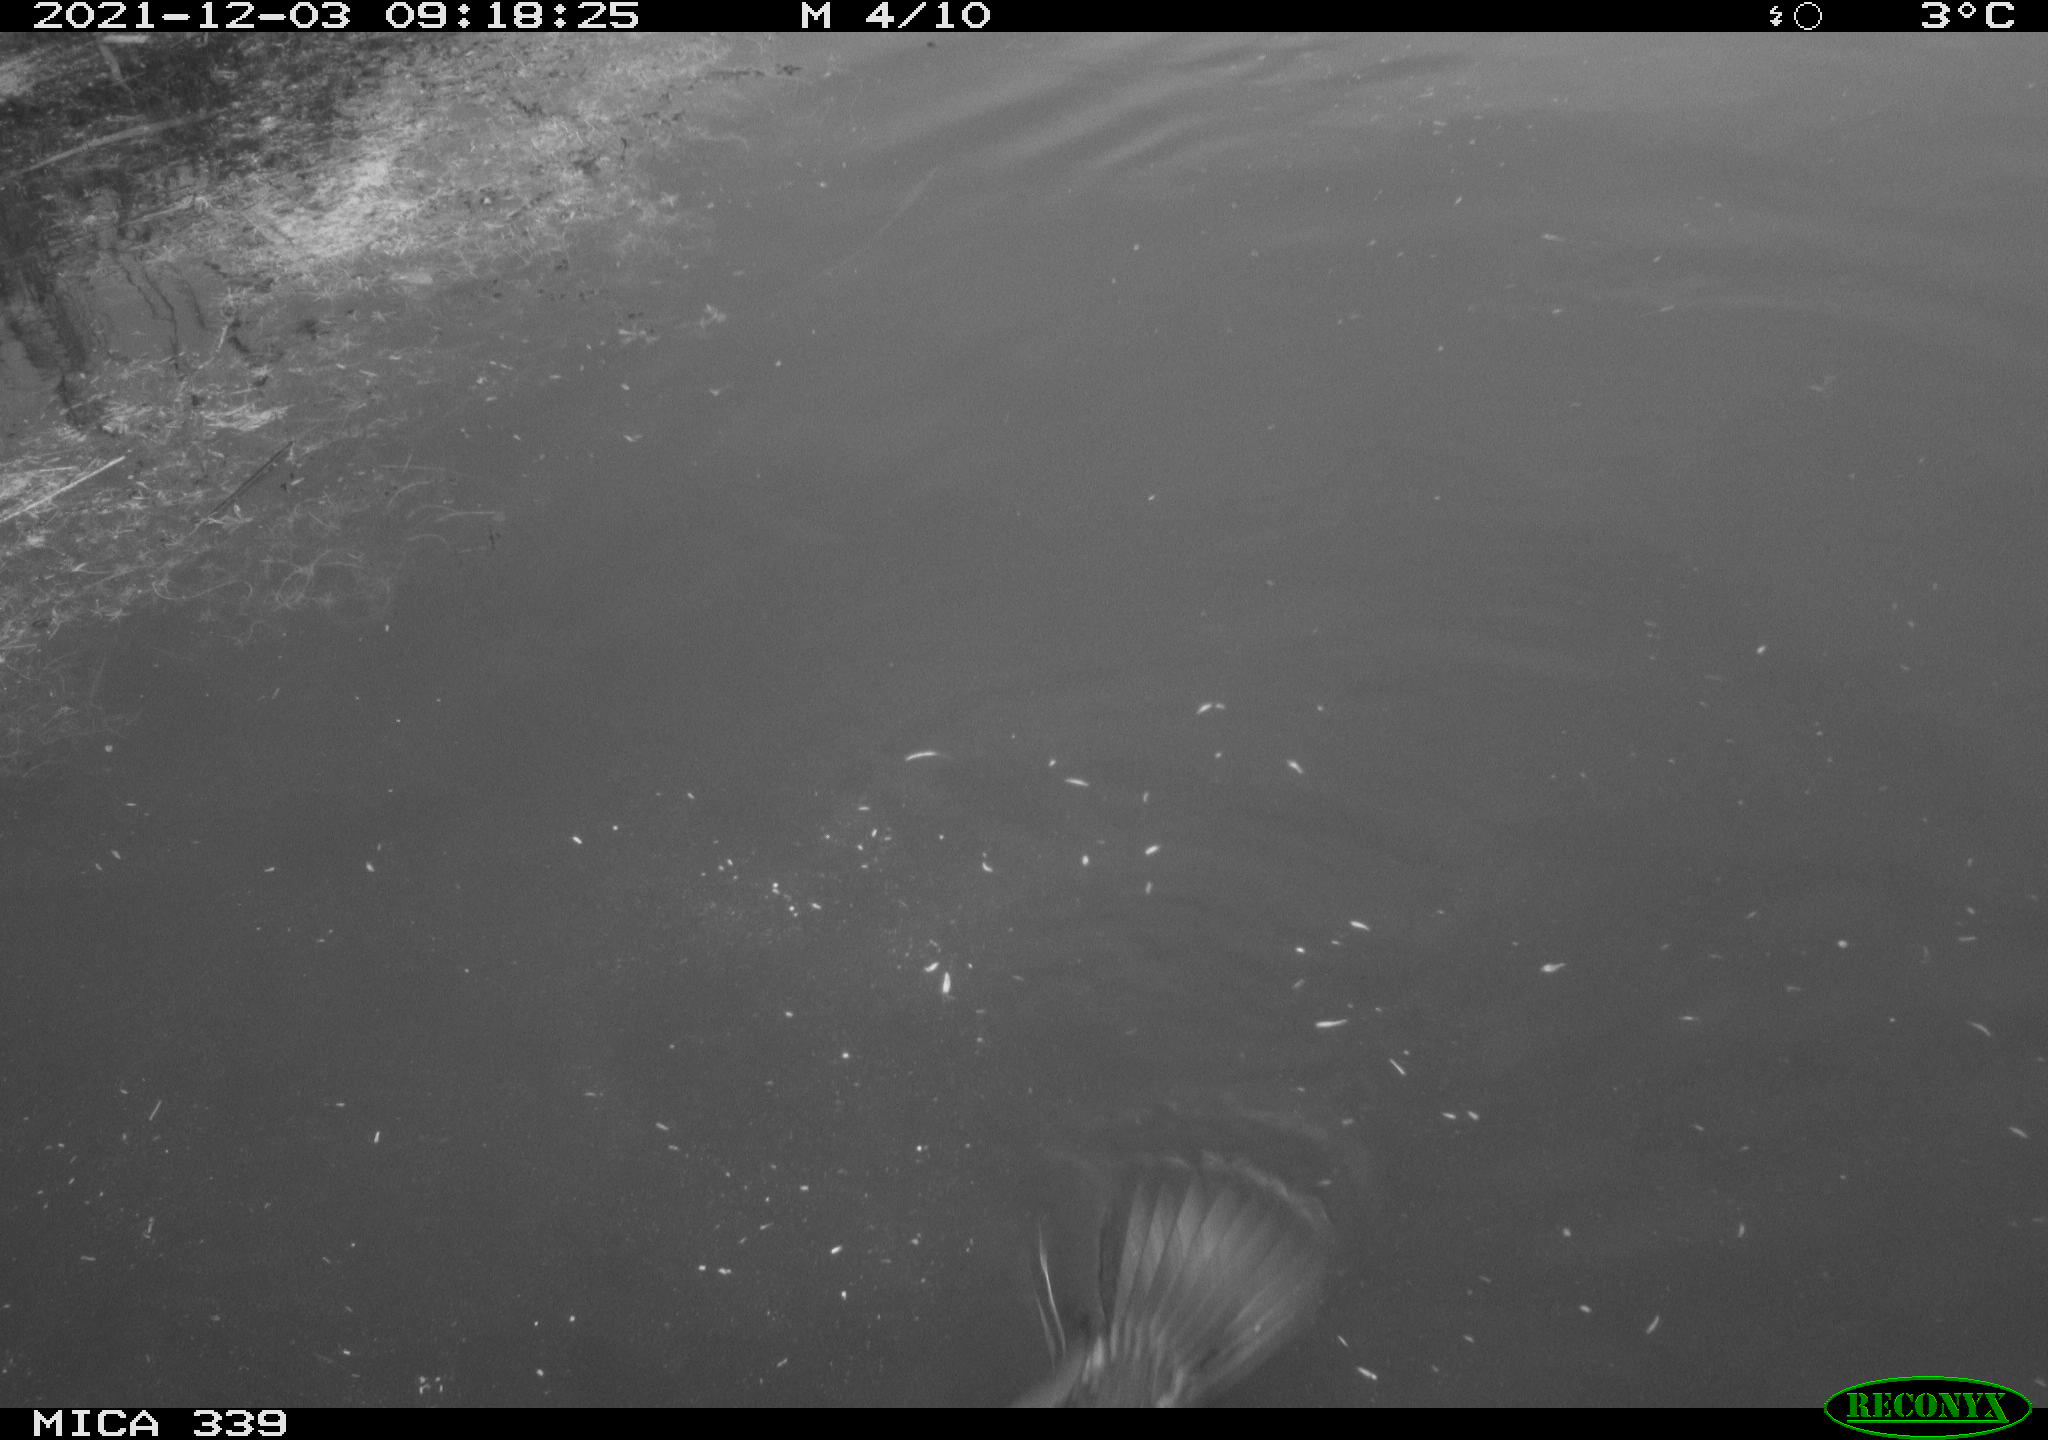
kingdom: Animalia
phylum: Chordata
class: Aves
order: Suliformes
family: Phalacrocoracidae
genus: Phalacrocorax
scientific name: Phalacrocorax carbo
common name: Great cormorant
